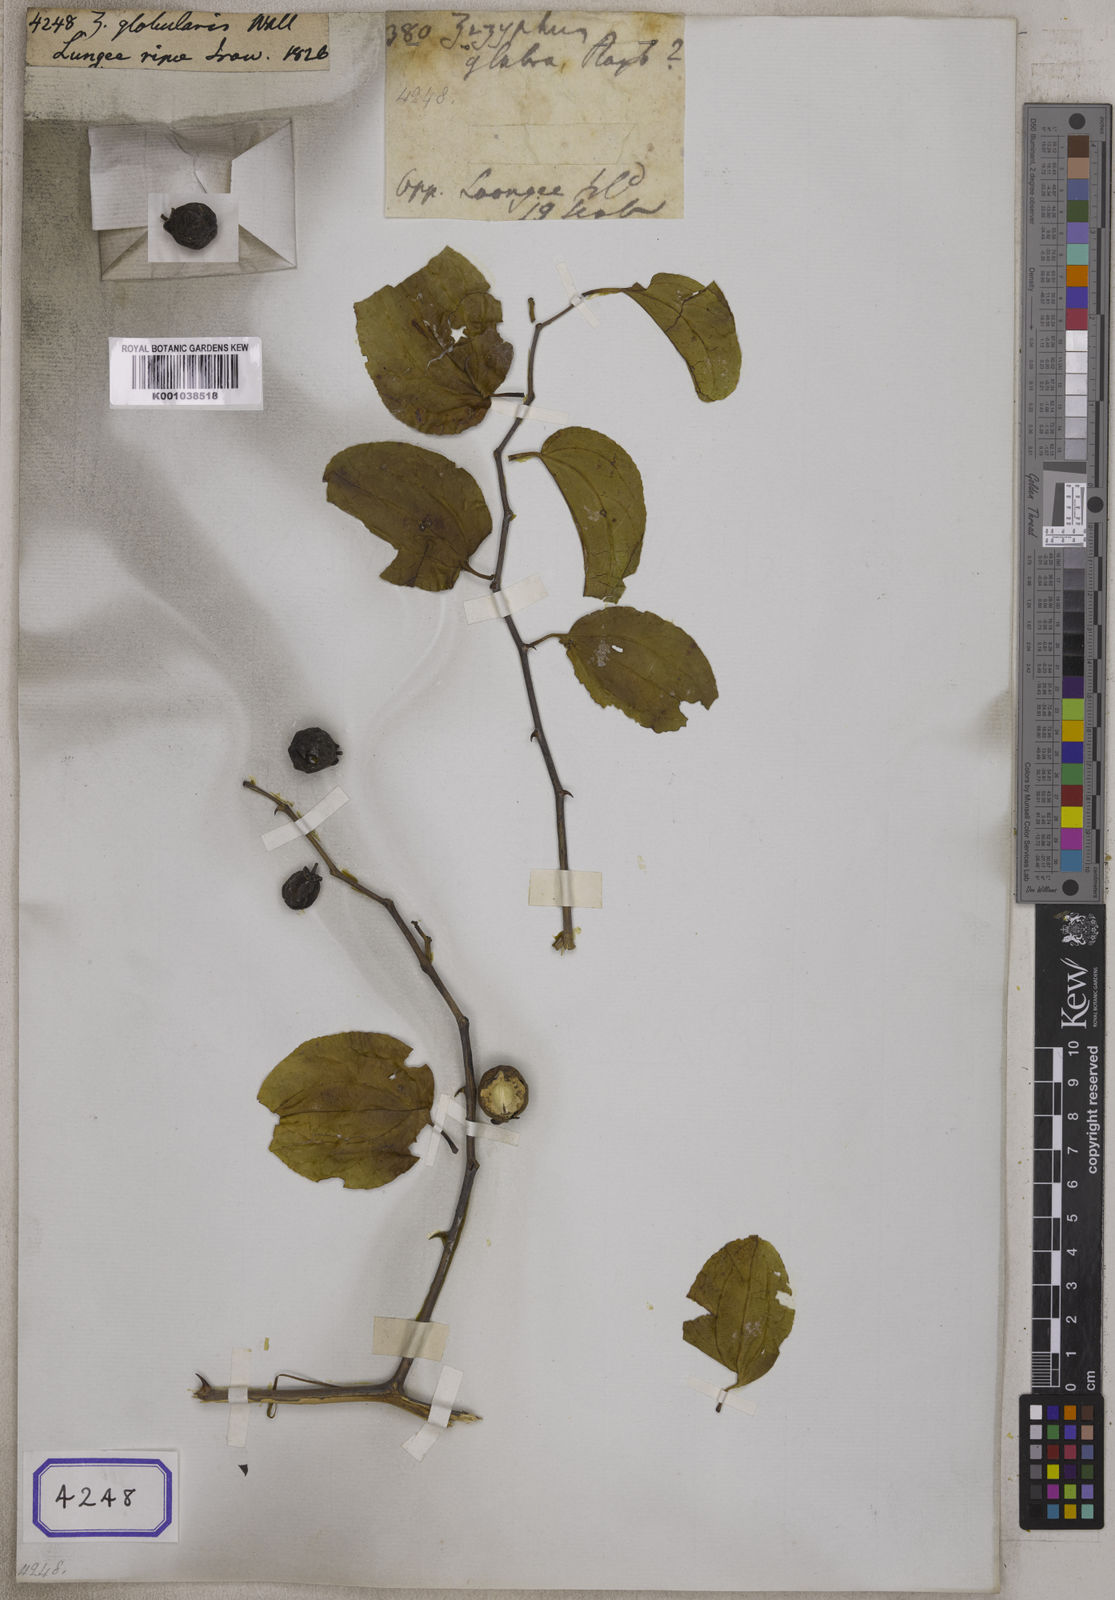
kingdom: Plantae
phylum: Tracheophyta
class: Magnoliopsida
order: Rosales
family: Rhamnaceae
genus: Ziziphus
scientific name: Ziziphus globularis
